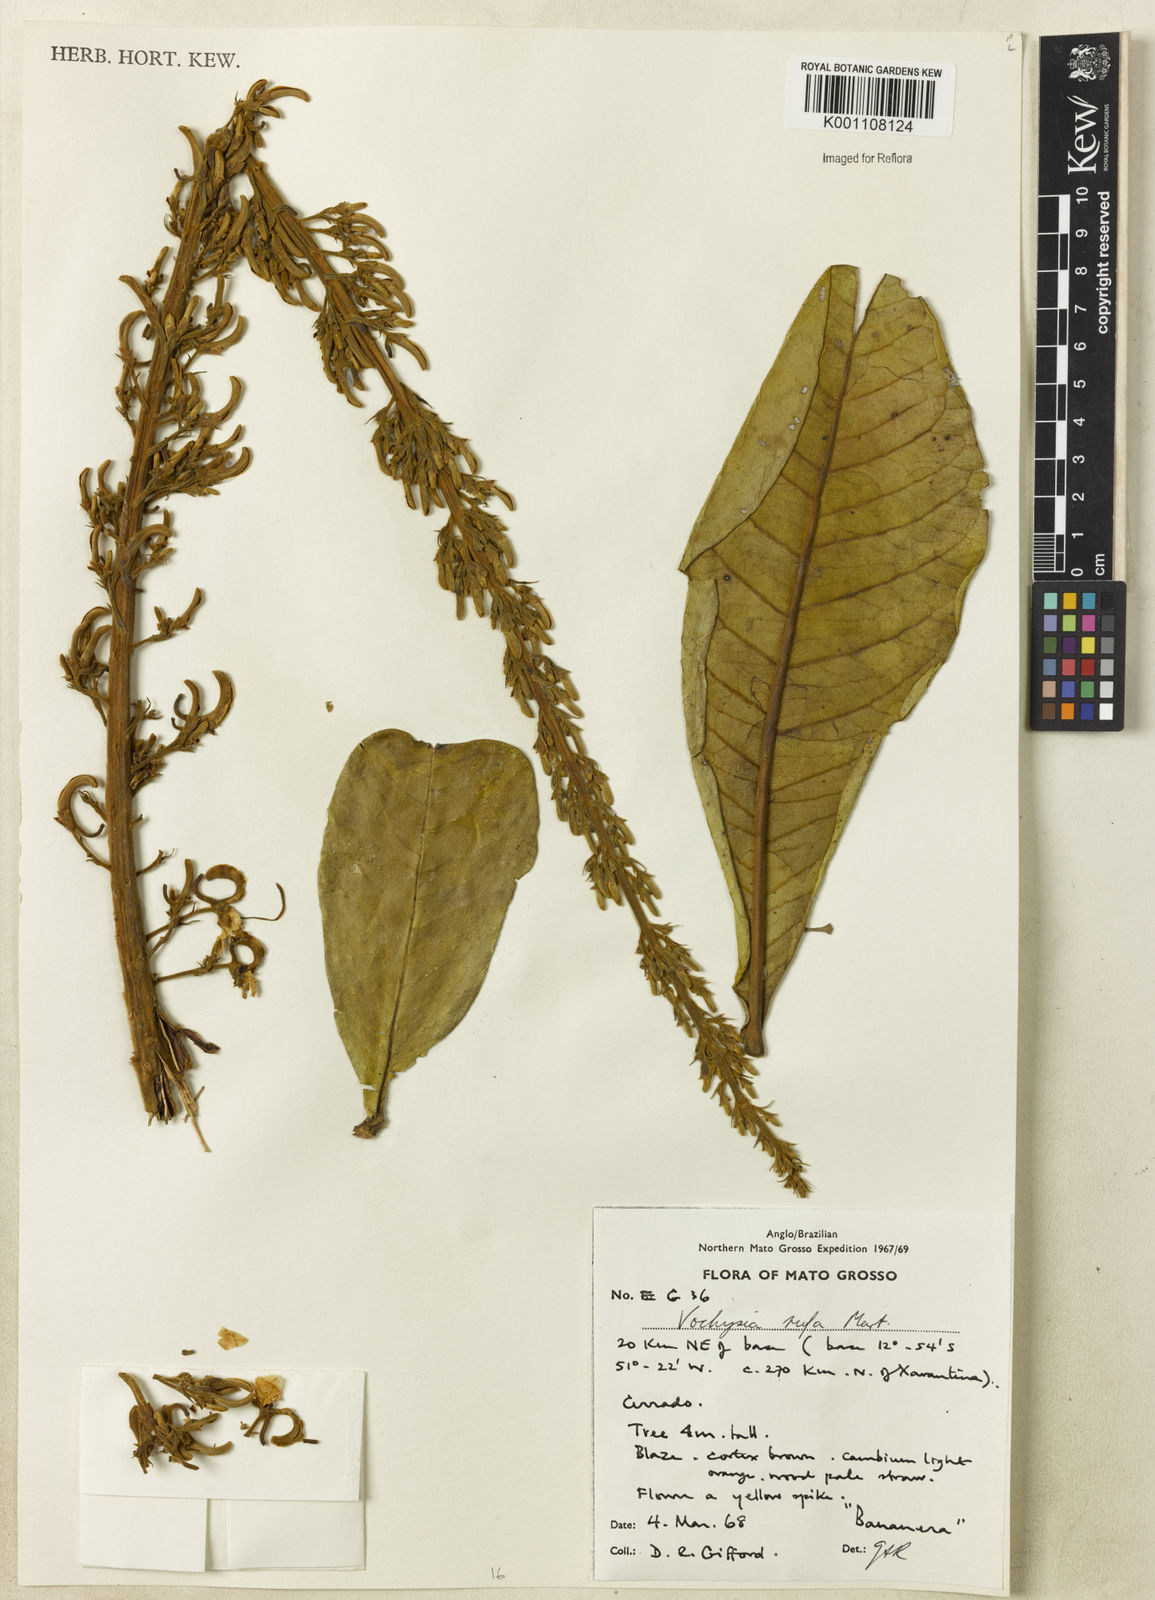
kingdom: Plantae
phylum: Tracheophyta
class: Magnoliopsida
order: Myrtales
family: Vochysiaceae
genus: Vochysia
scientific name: Vochysia rufa
